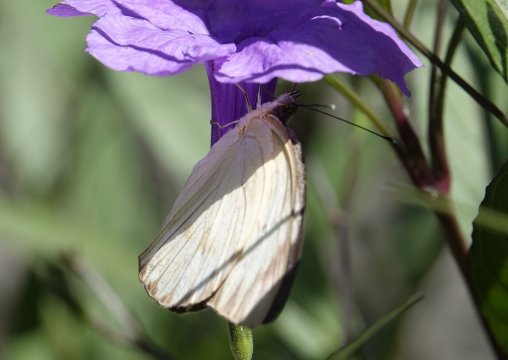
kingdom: Animalia
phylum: Arthropoda
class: Insecta
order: Lepidoptera
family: Pieridae
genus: Ascia
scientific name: Ascia monuste
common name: Great Southern White
